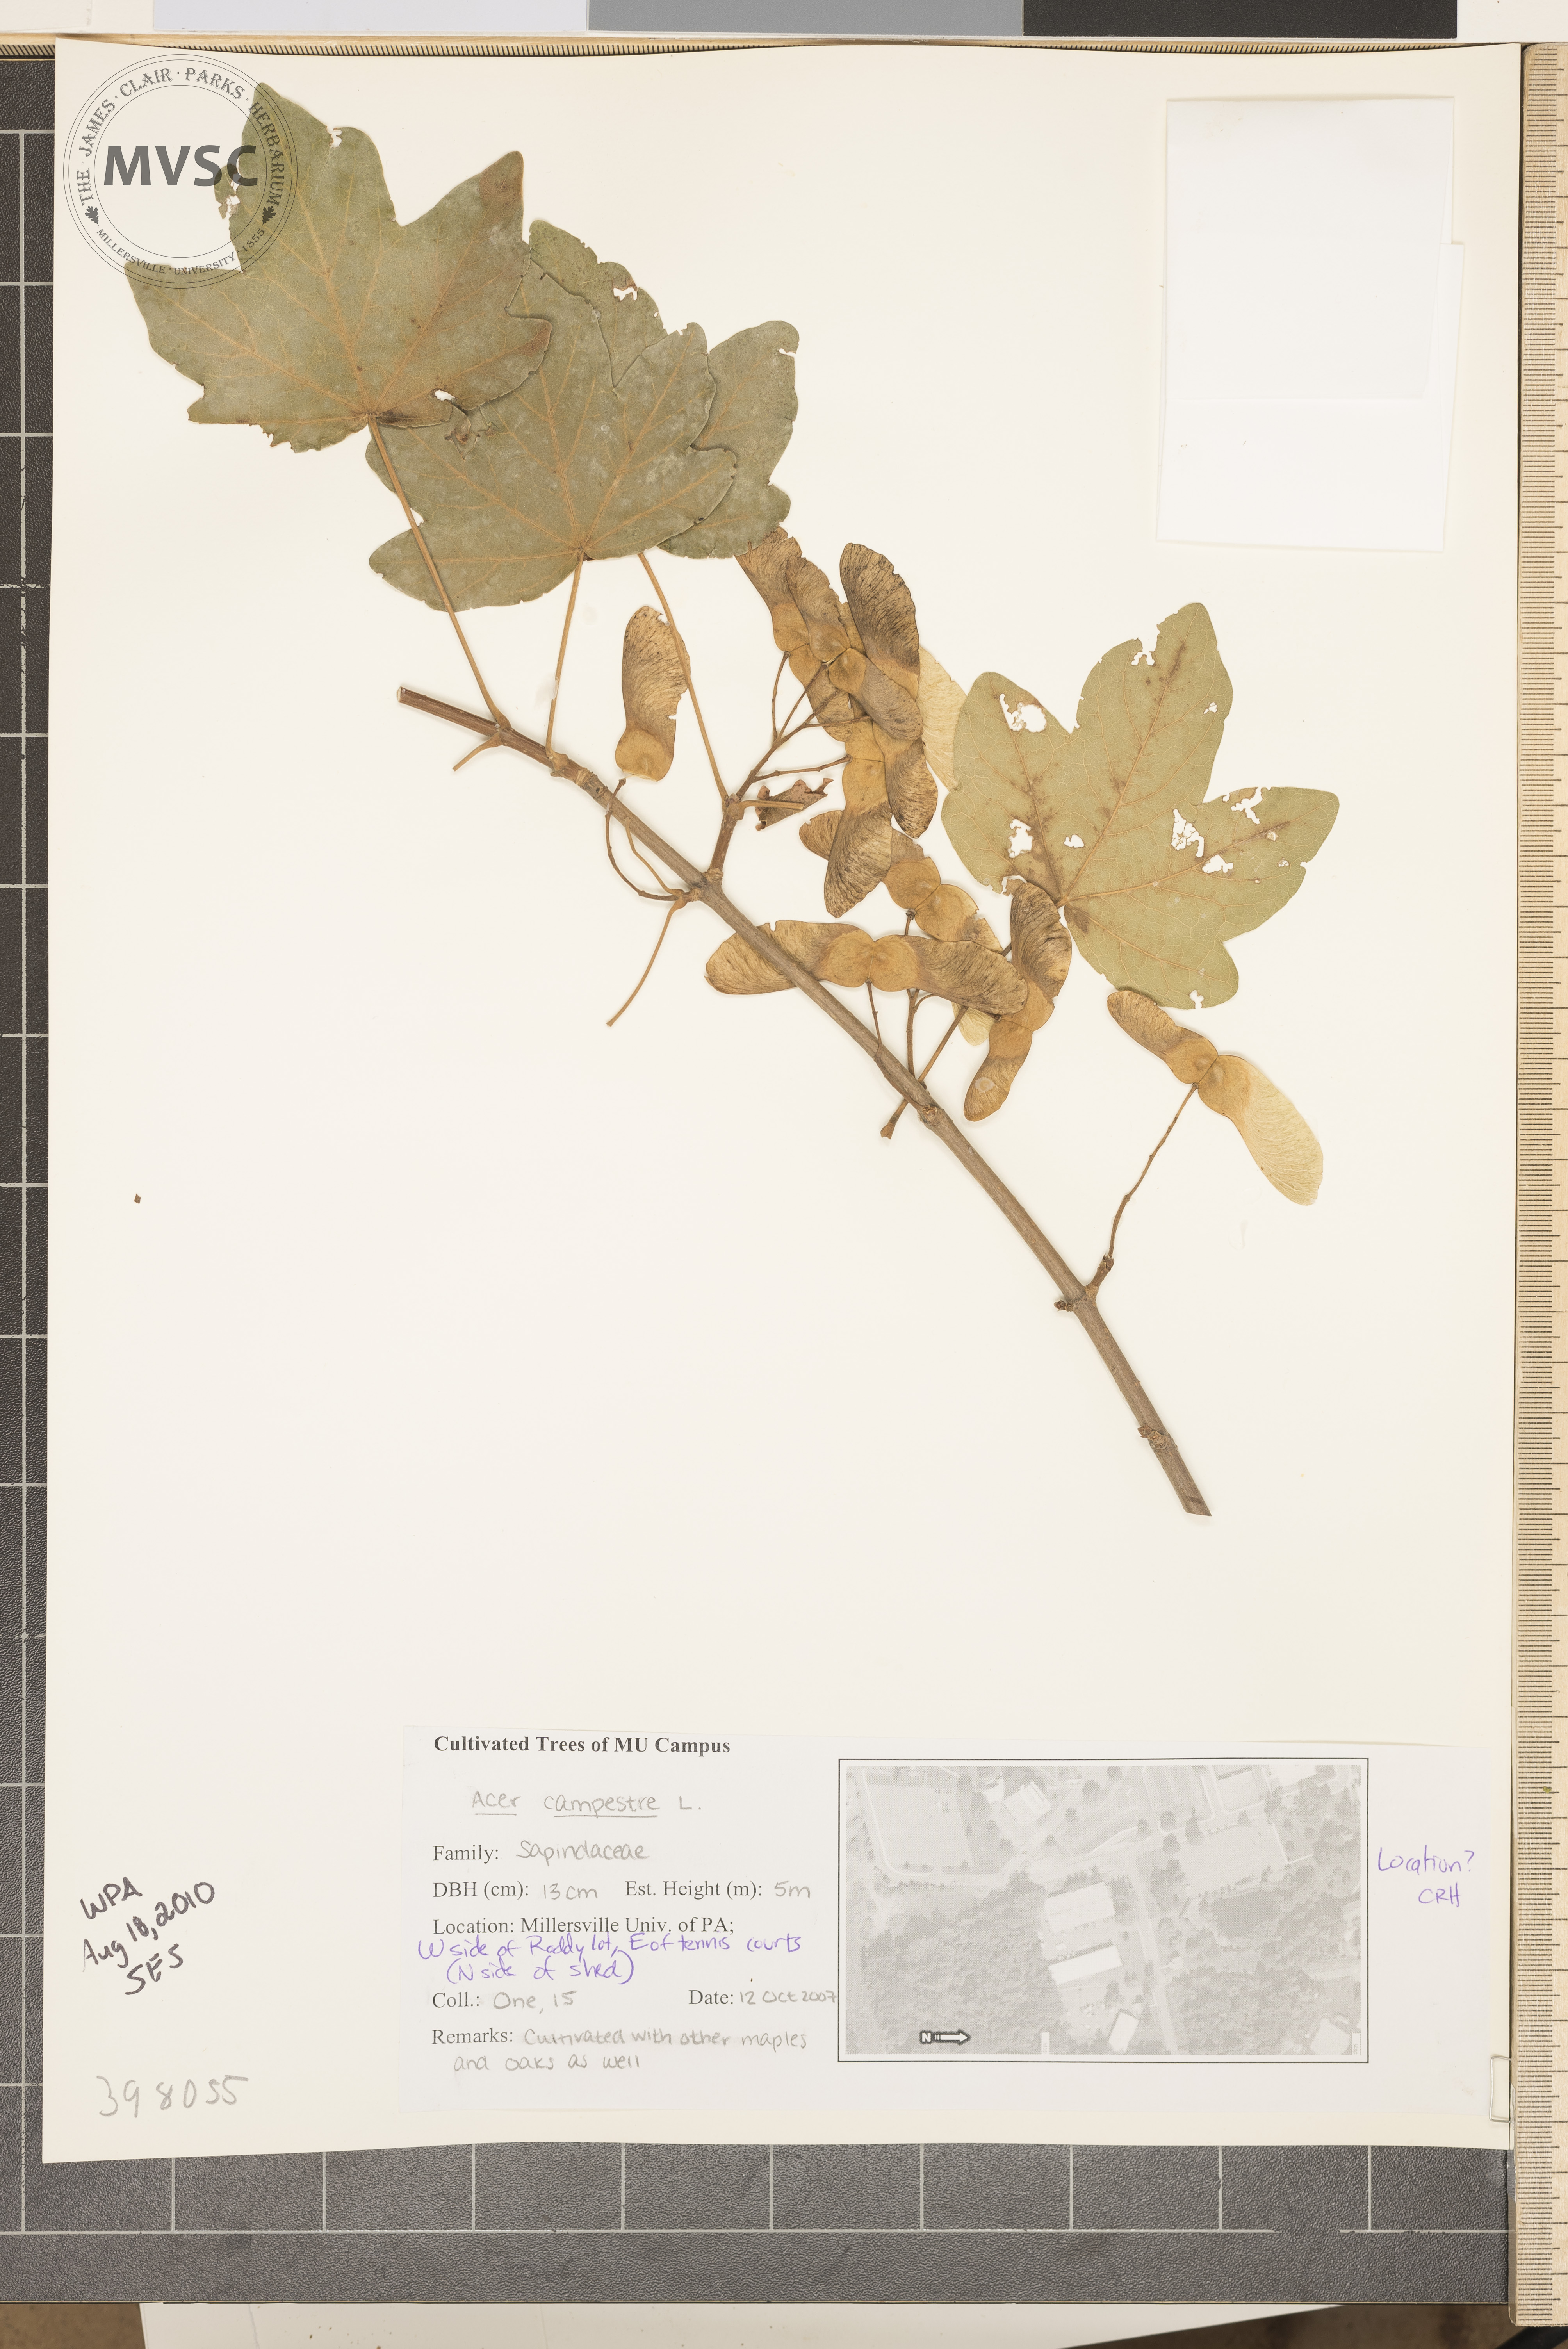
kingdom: Plantae
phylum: Tracheophyta
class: Magnoliopsida
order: Sapindales
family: Sapindaceae
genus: Acer
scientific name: Acer campestre
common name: Hedge maple
